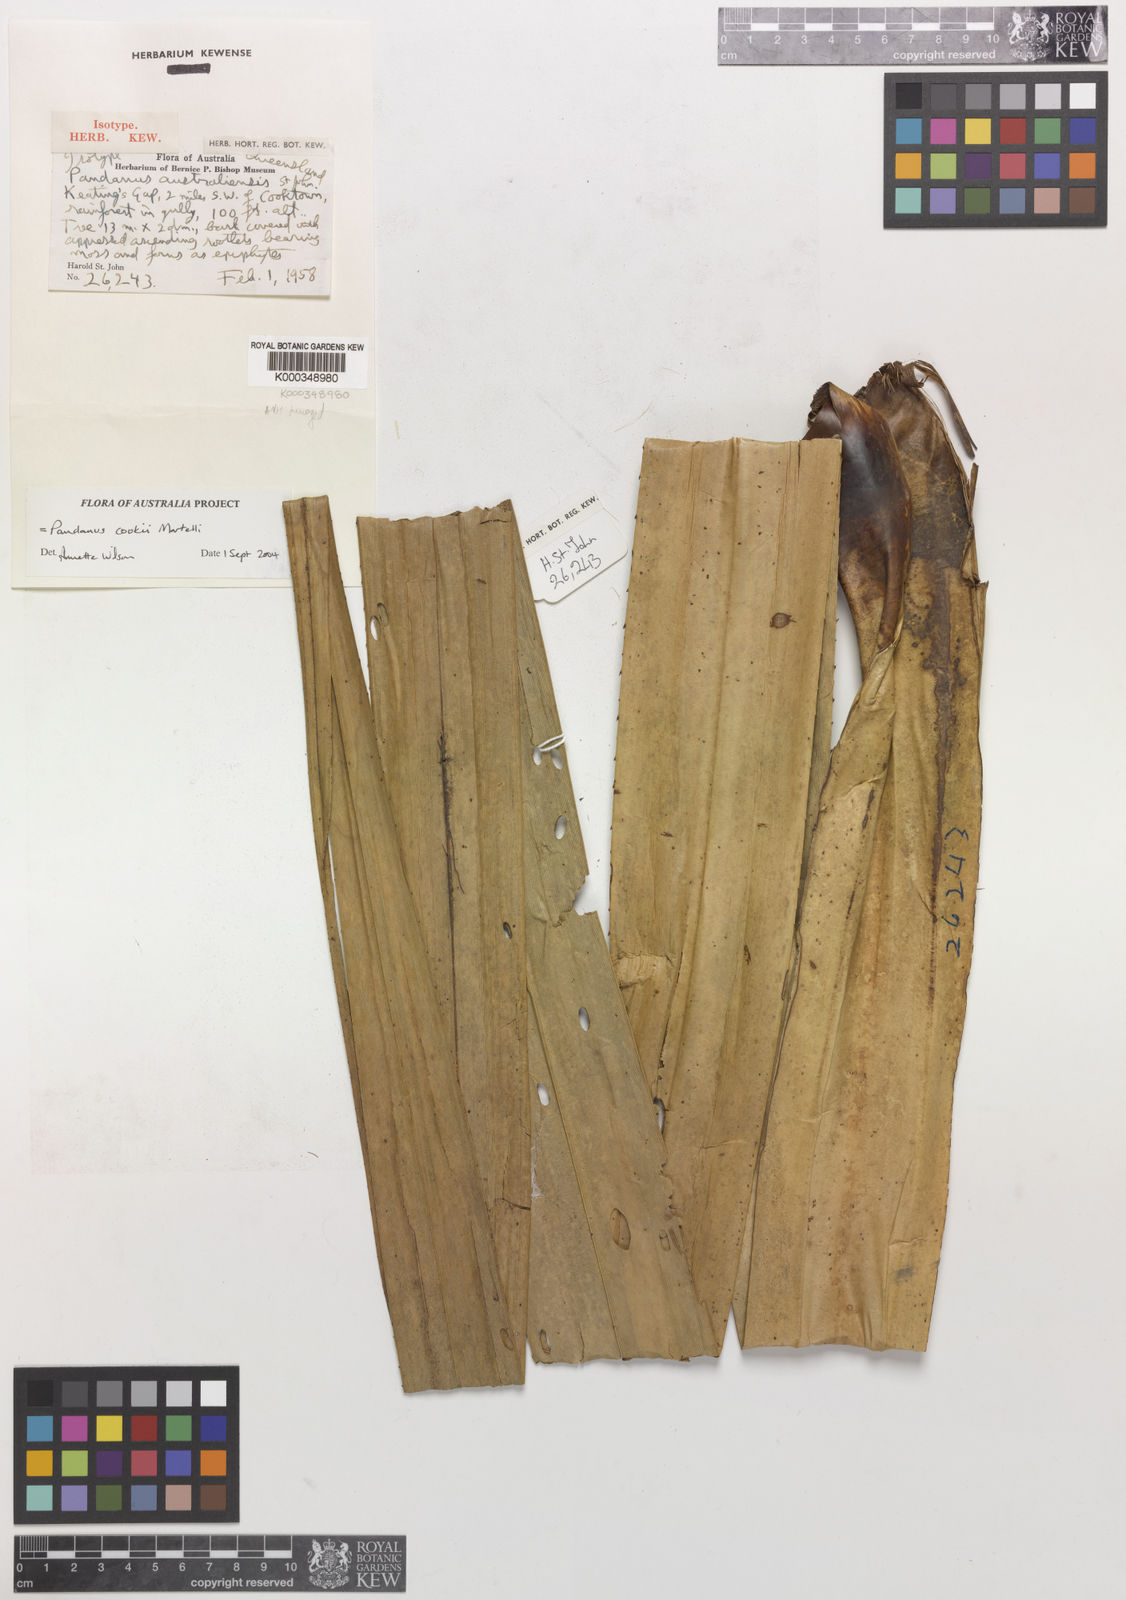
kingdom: Plantae
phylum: Tracheophyta
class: Liliopsida
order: Pandanales
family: Pandanaceae
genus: Pandanus
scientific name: Pandanus cookii
